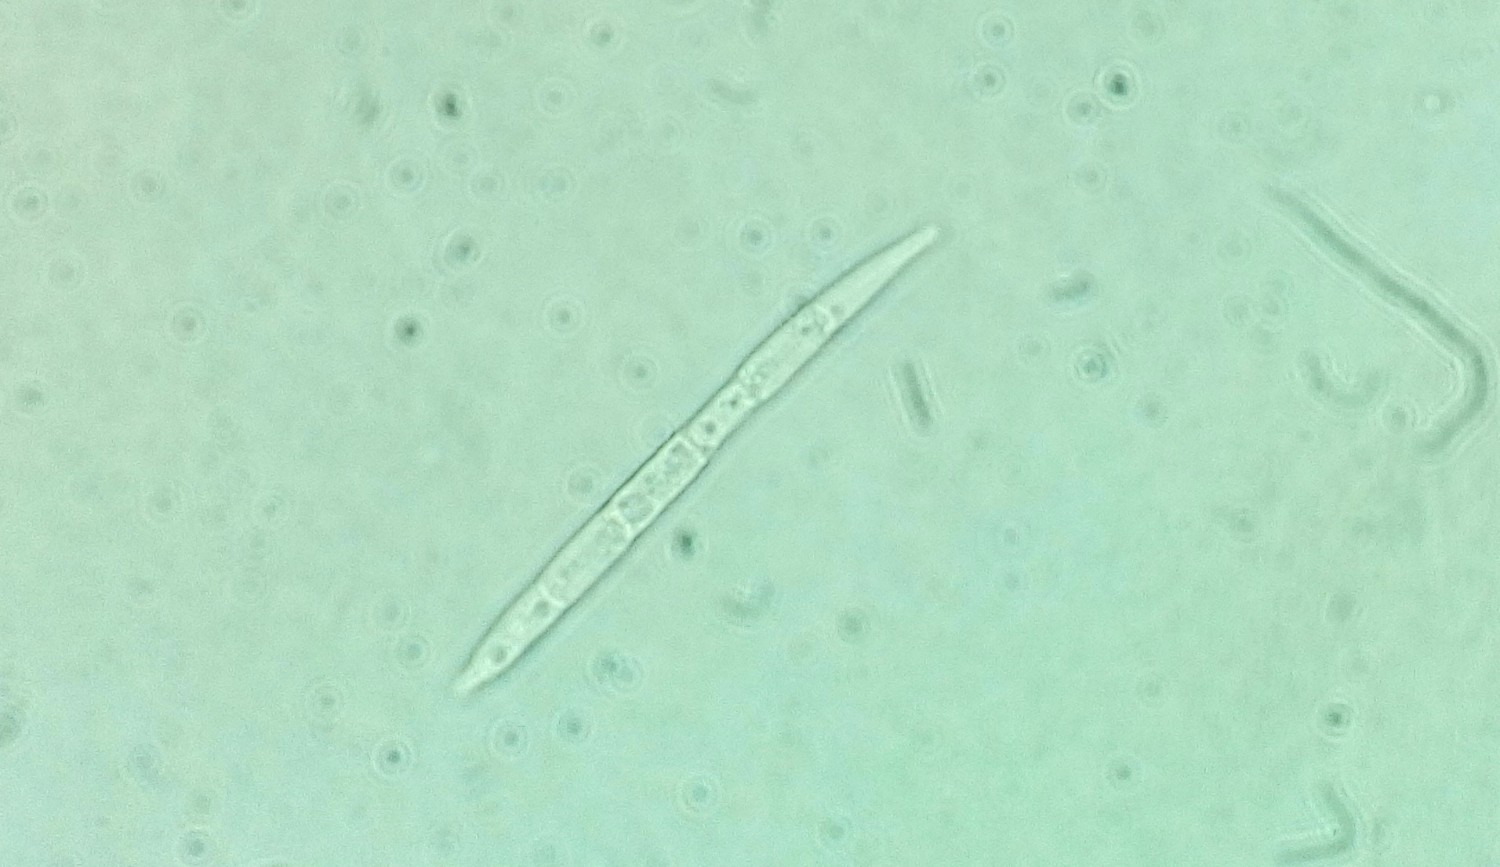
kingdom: Fungi
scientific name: Fungi
